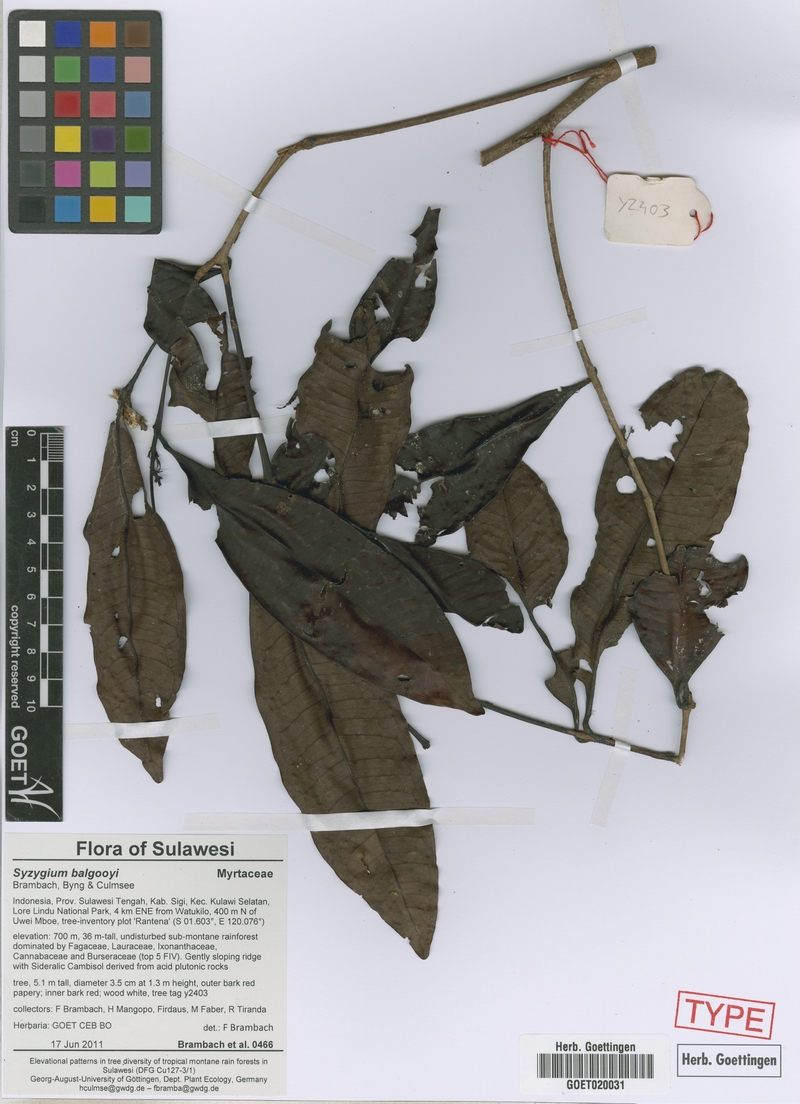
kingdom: Plantae
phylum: Tracheophyta
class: Magnoliopsida
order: Myrtales
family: Myrtaceae
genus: Syzygium
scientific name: Syzygium balgooyi
